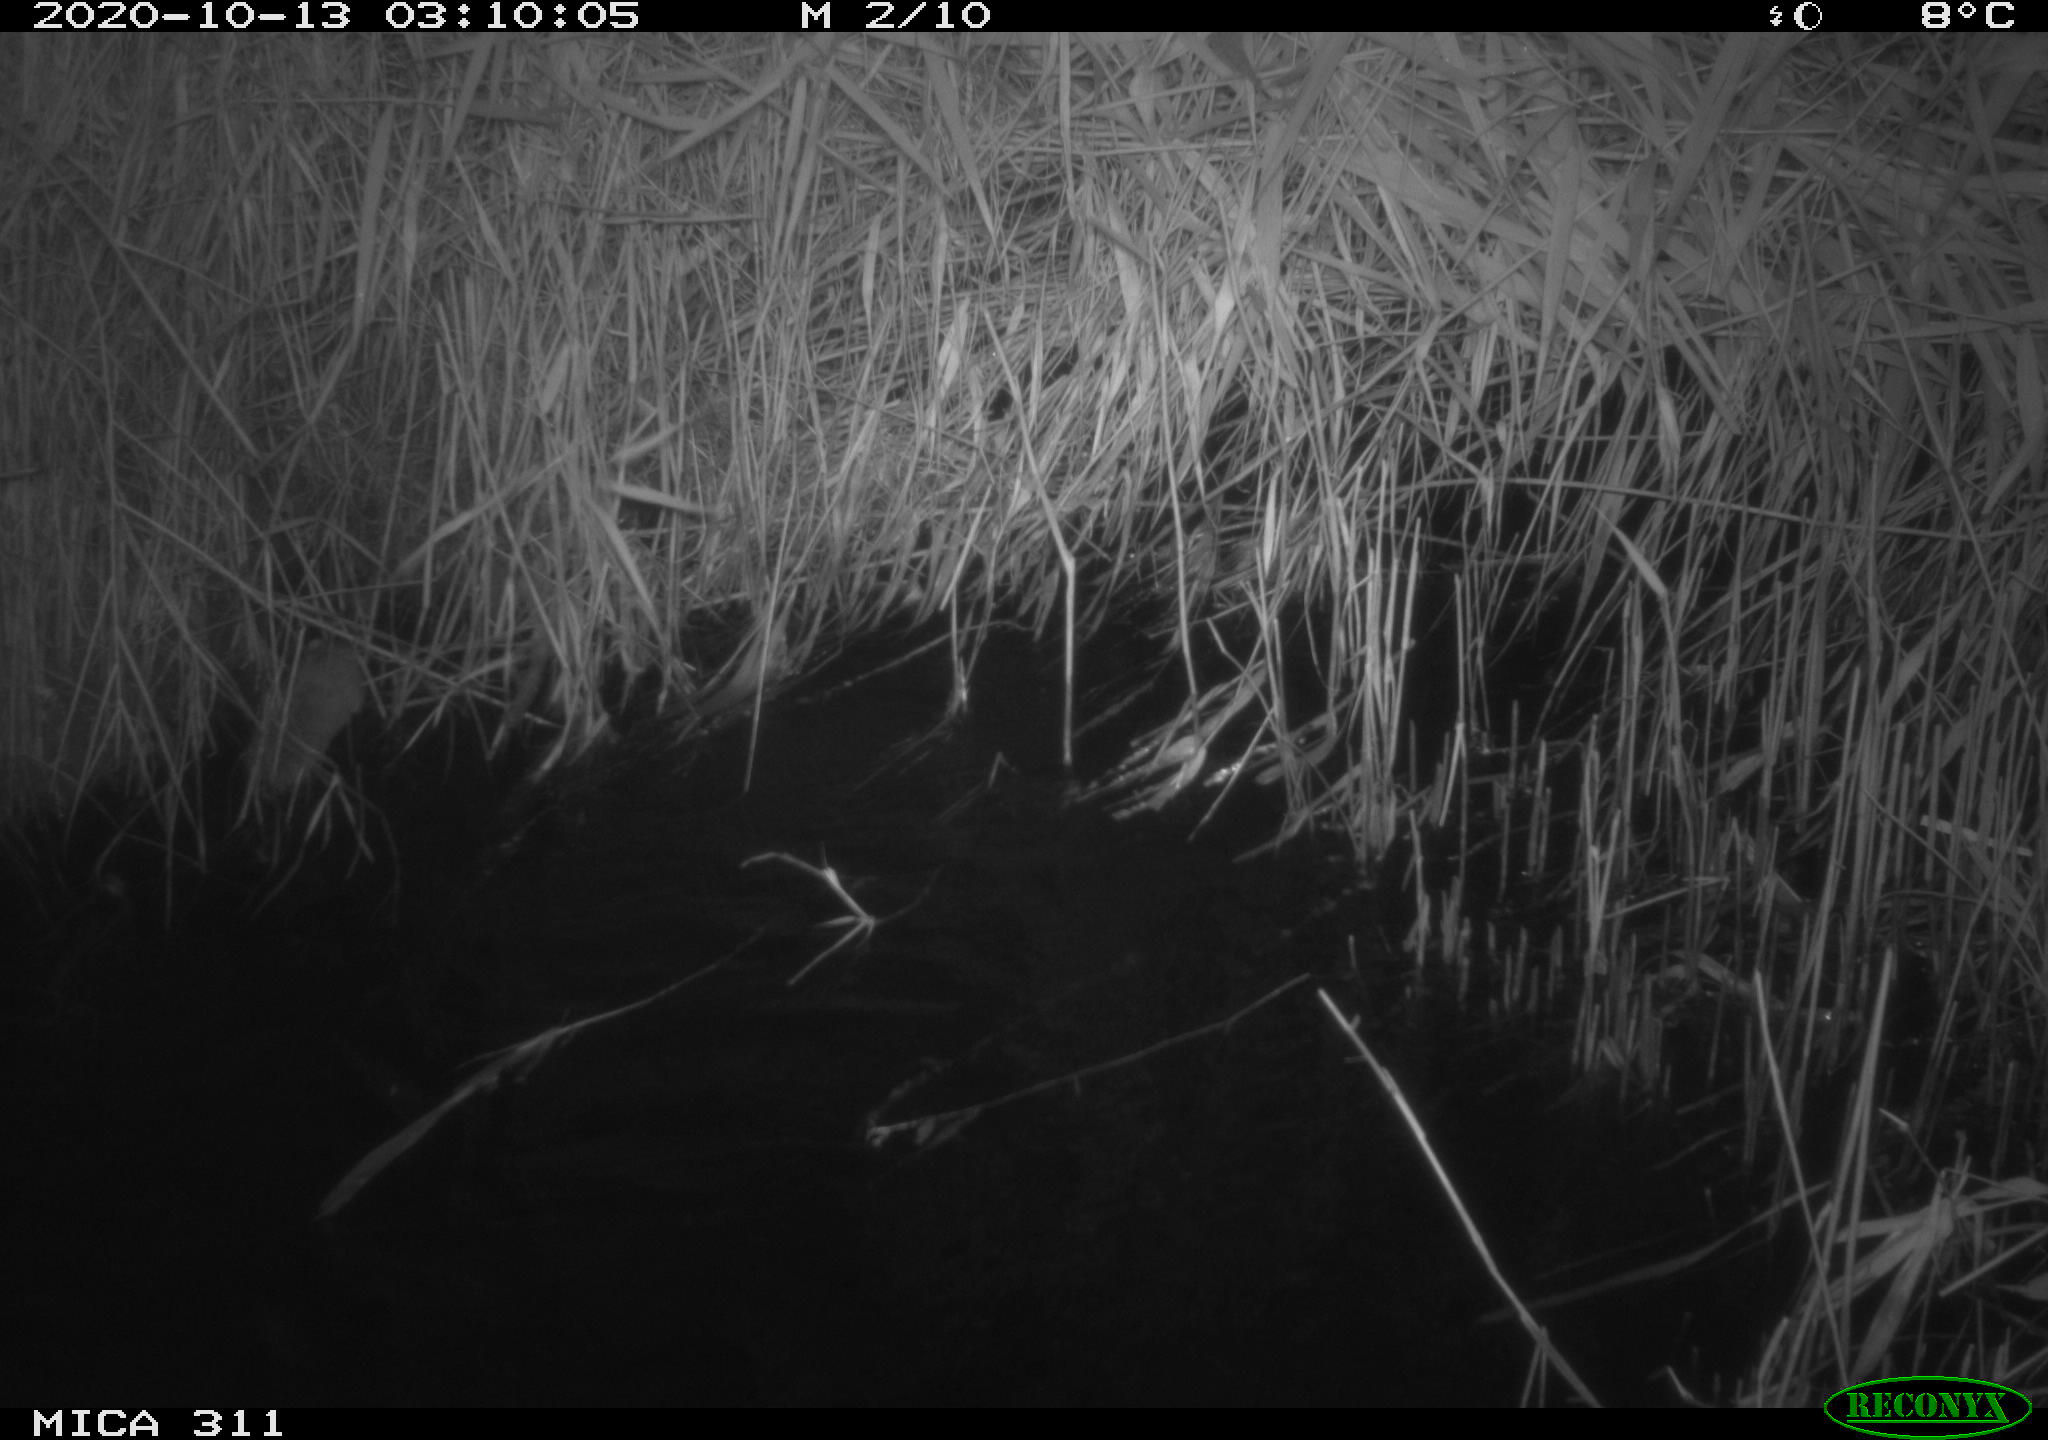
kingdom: Animalia
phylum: Chordata
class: Mammalia
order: Rodentia
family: Cricetidae
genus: Ondatra
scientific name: Ondatra zibethicus
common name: Muskrat
